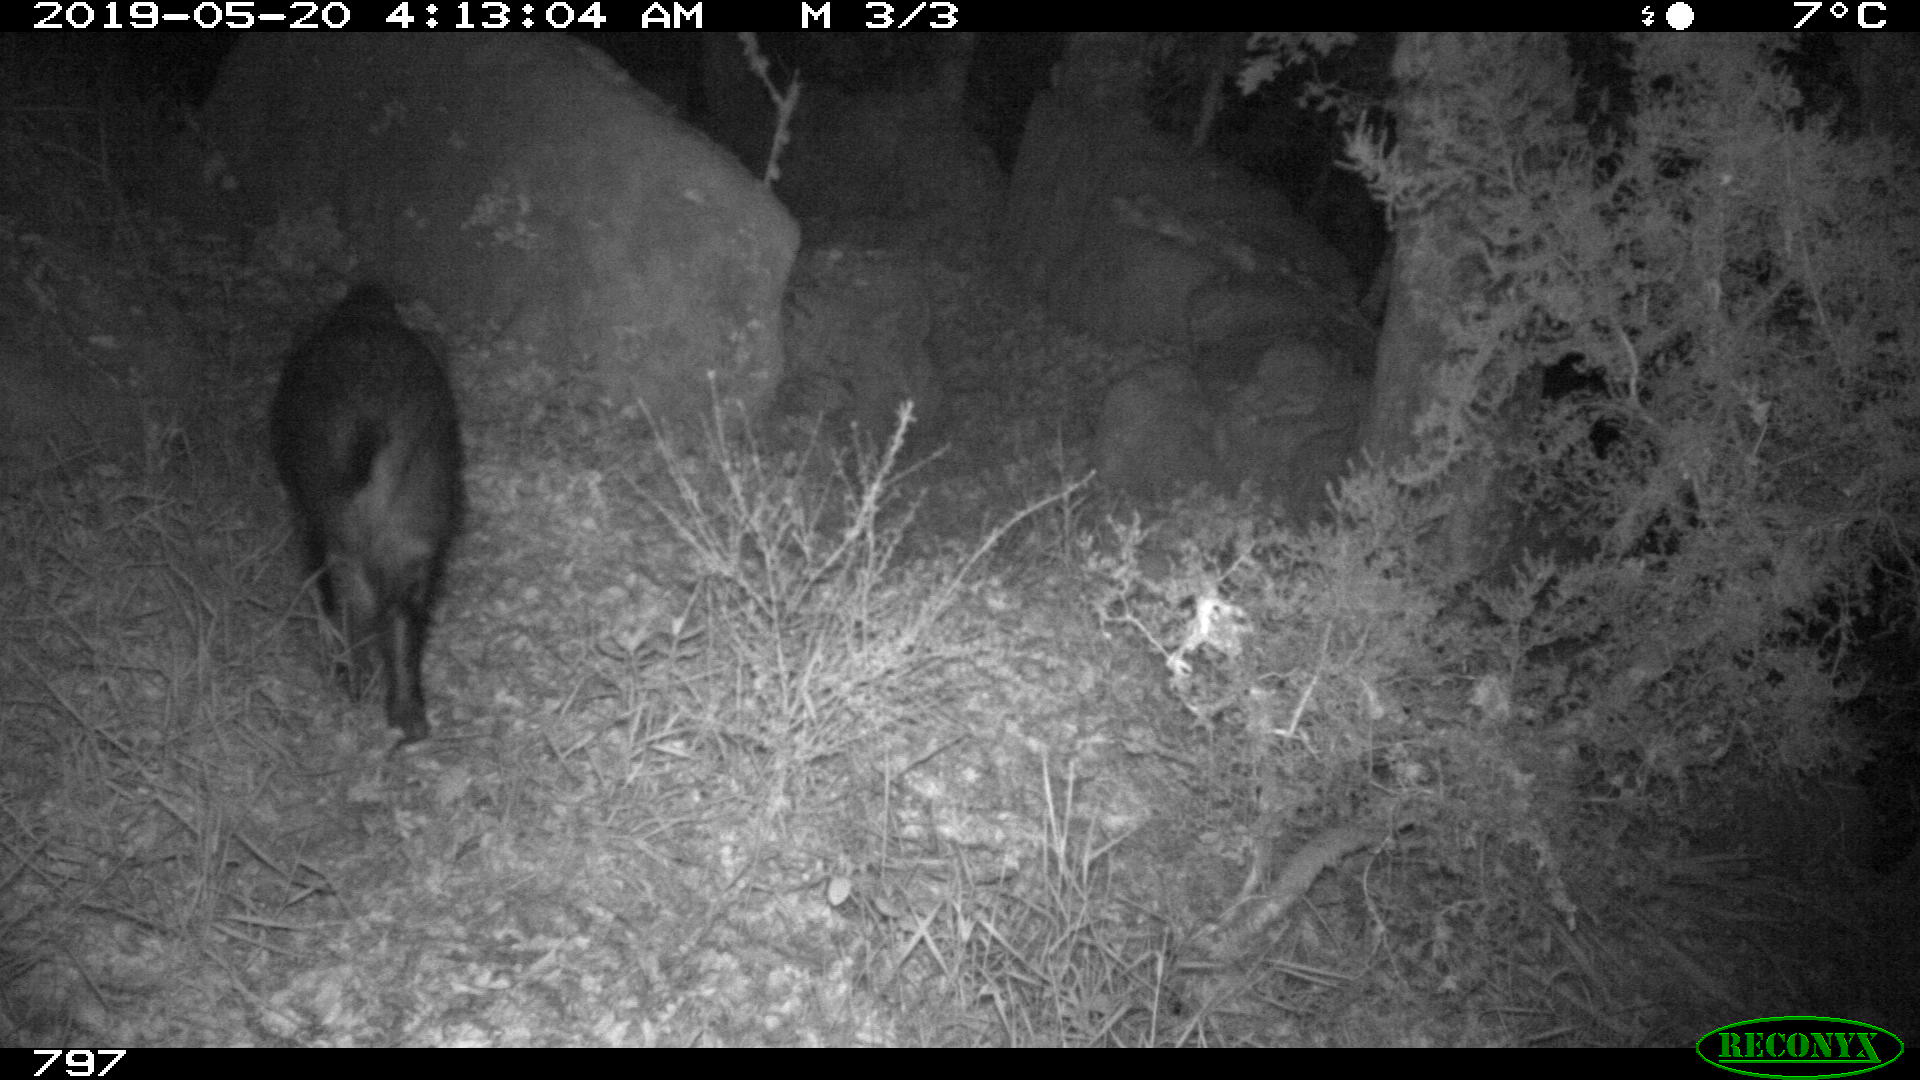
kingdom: Animalia
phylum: Chordata
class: Mammalia
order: Artiodactyla
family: Suidae
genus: Sus
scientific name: Sus scrofa
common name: Wild boar
